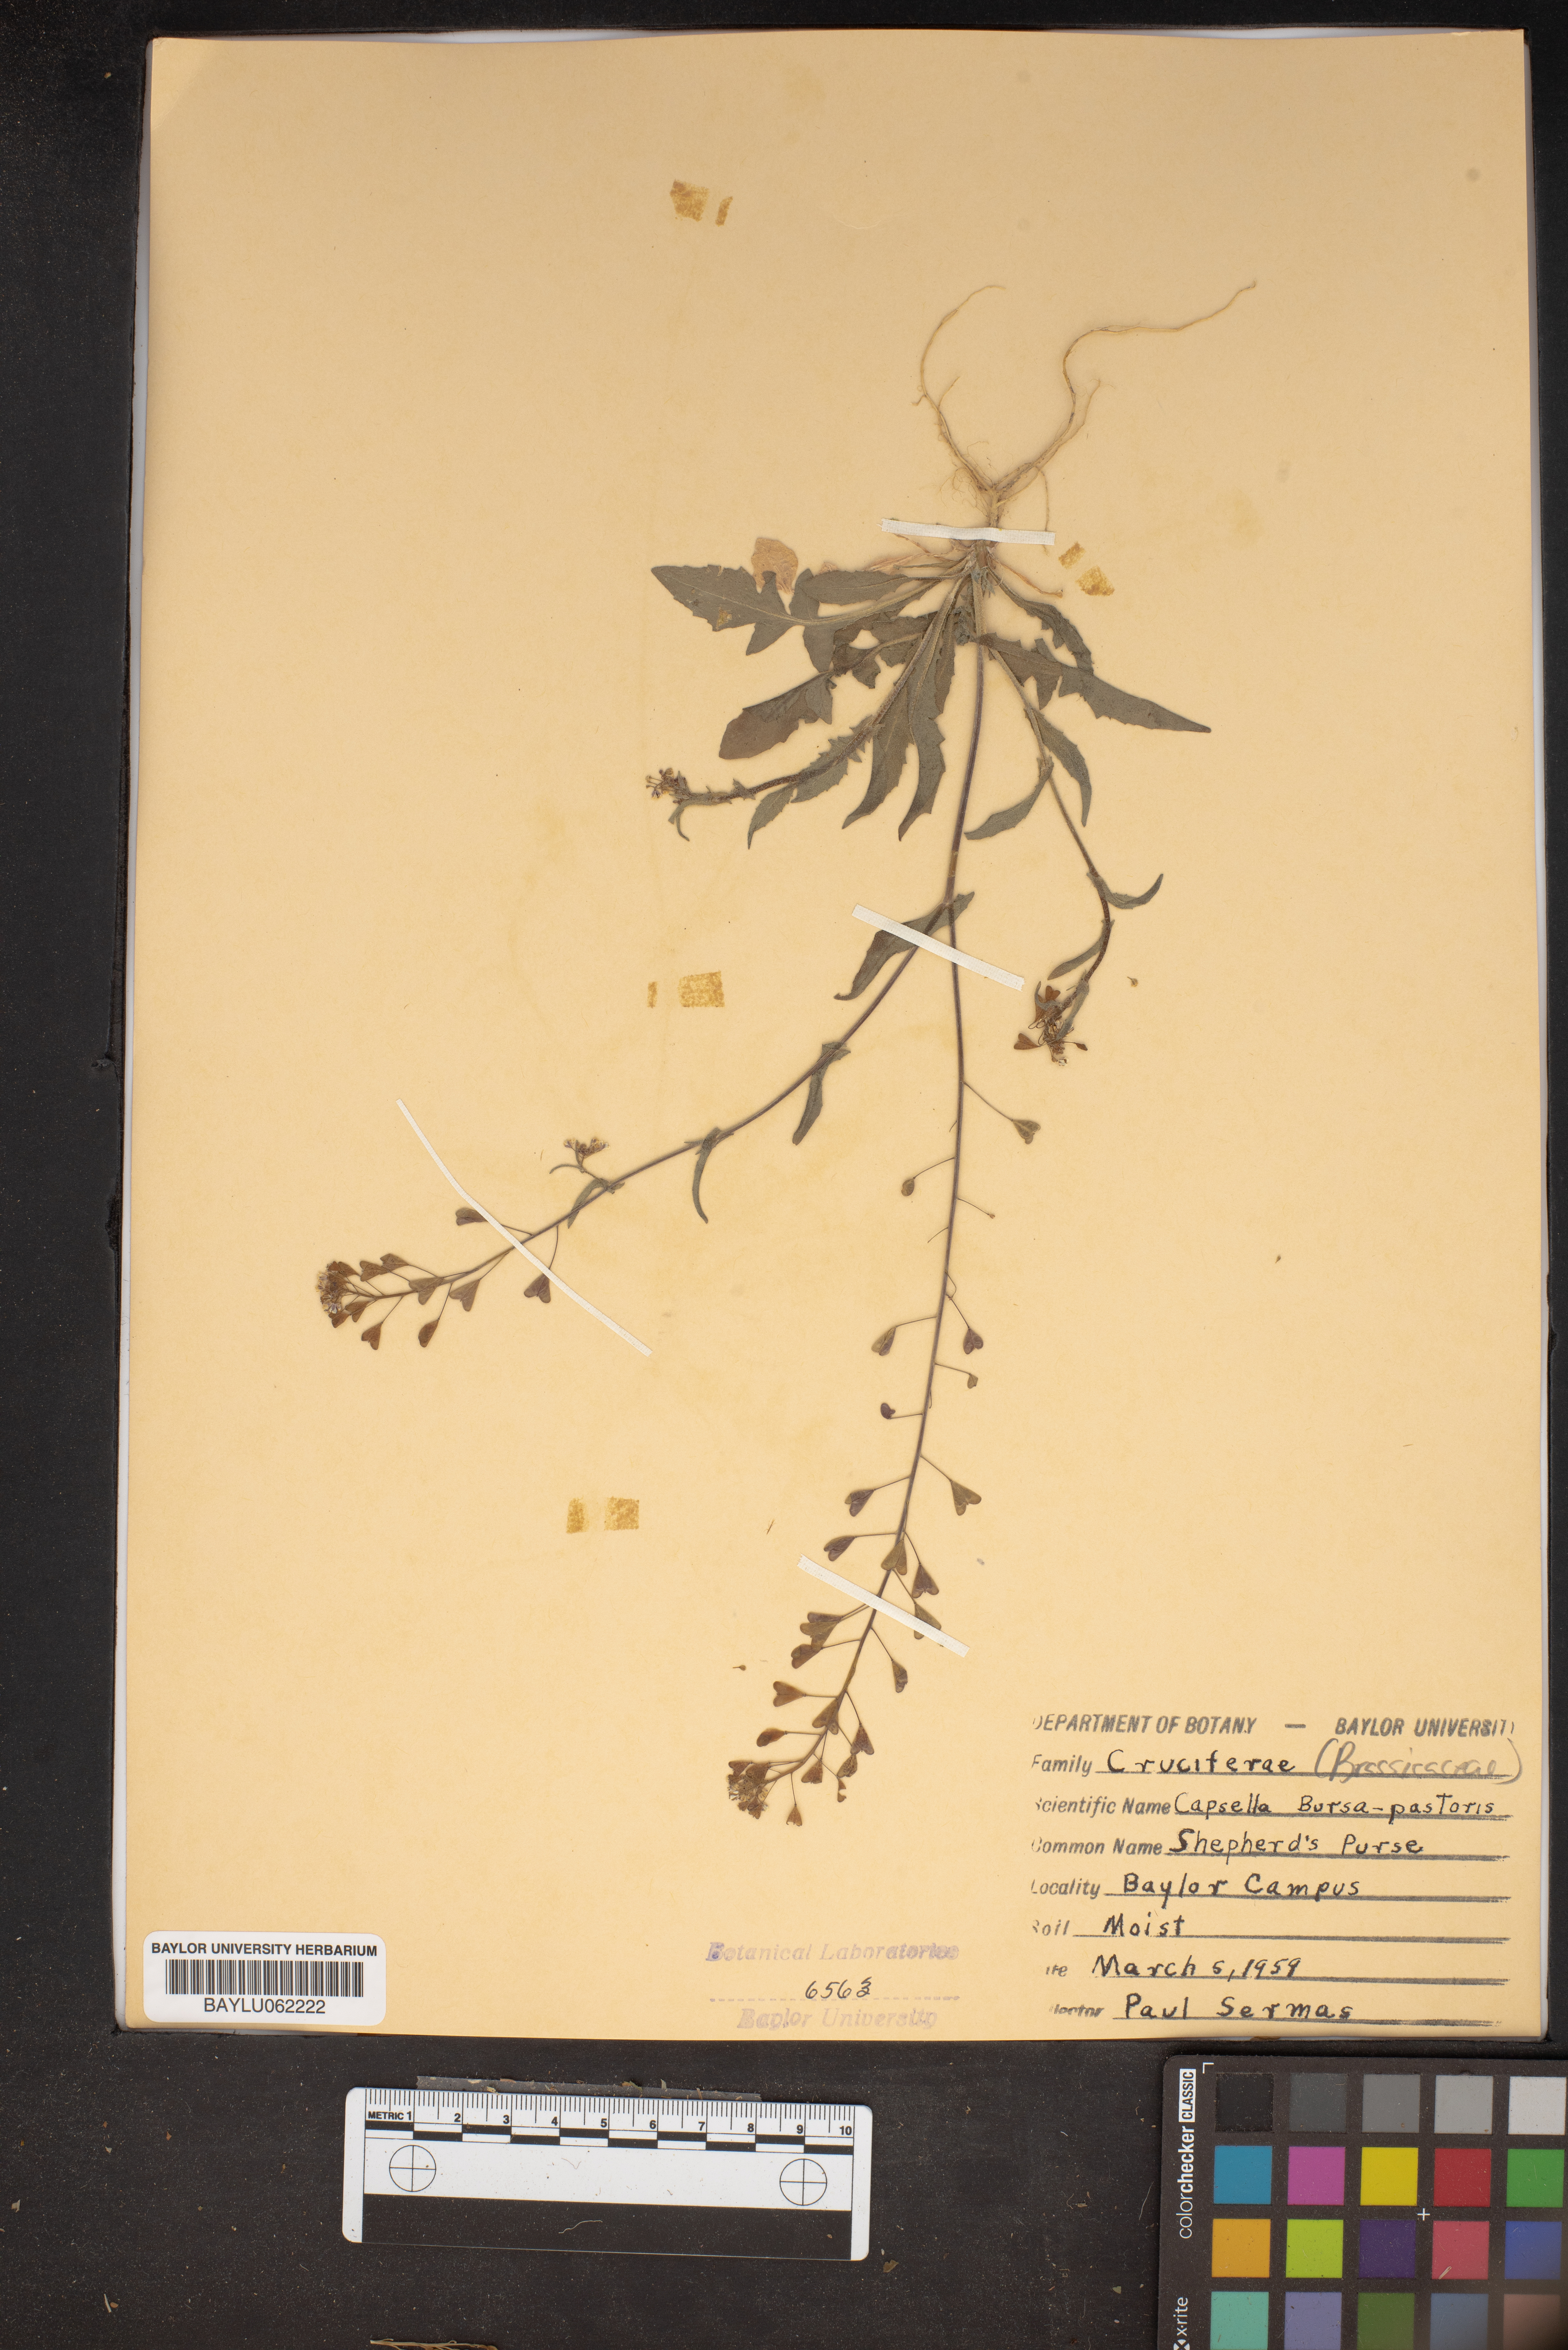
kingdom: Plantae
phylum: Tracheophyta
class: Magnoliopsida
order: Brassicales
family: Brassicaceae
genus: Capsella
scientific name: Capsella bursa-pastoris
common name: Shepherd's purse
